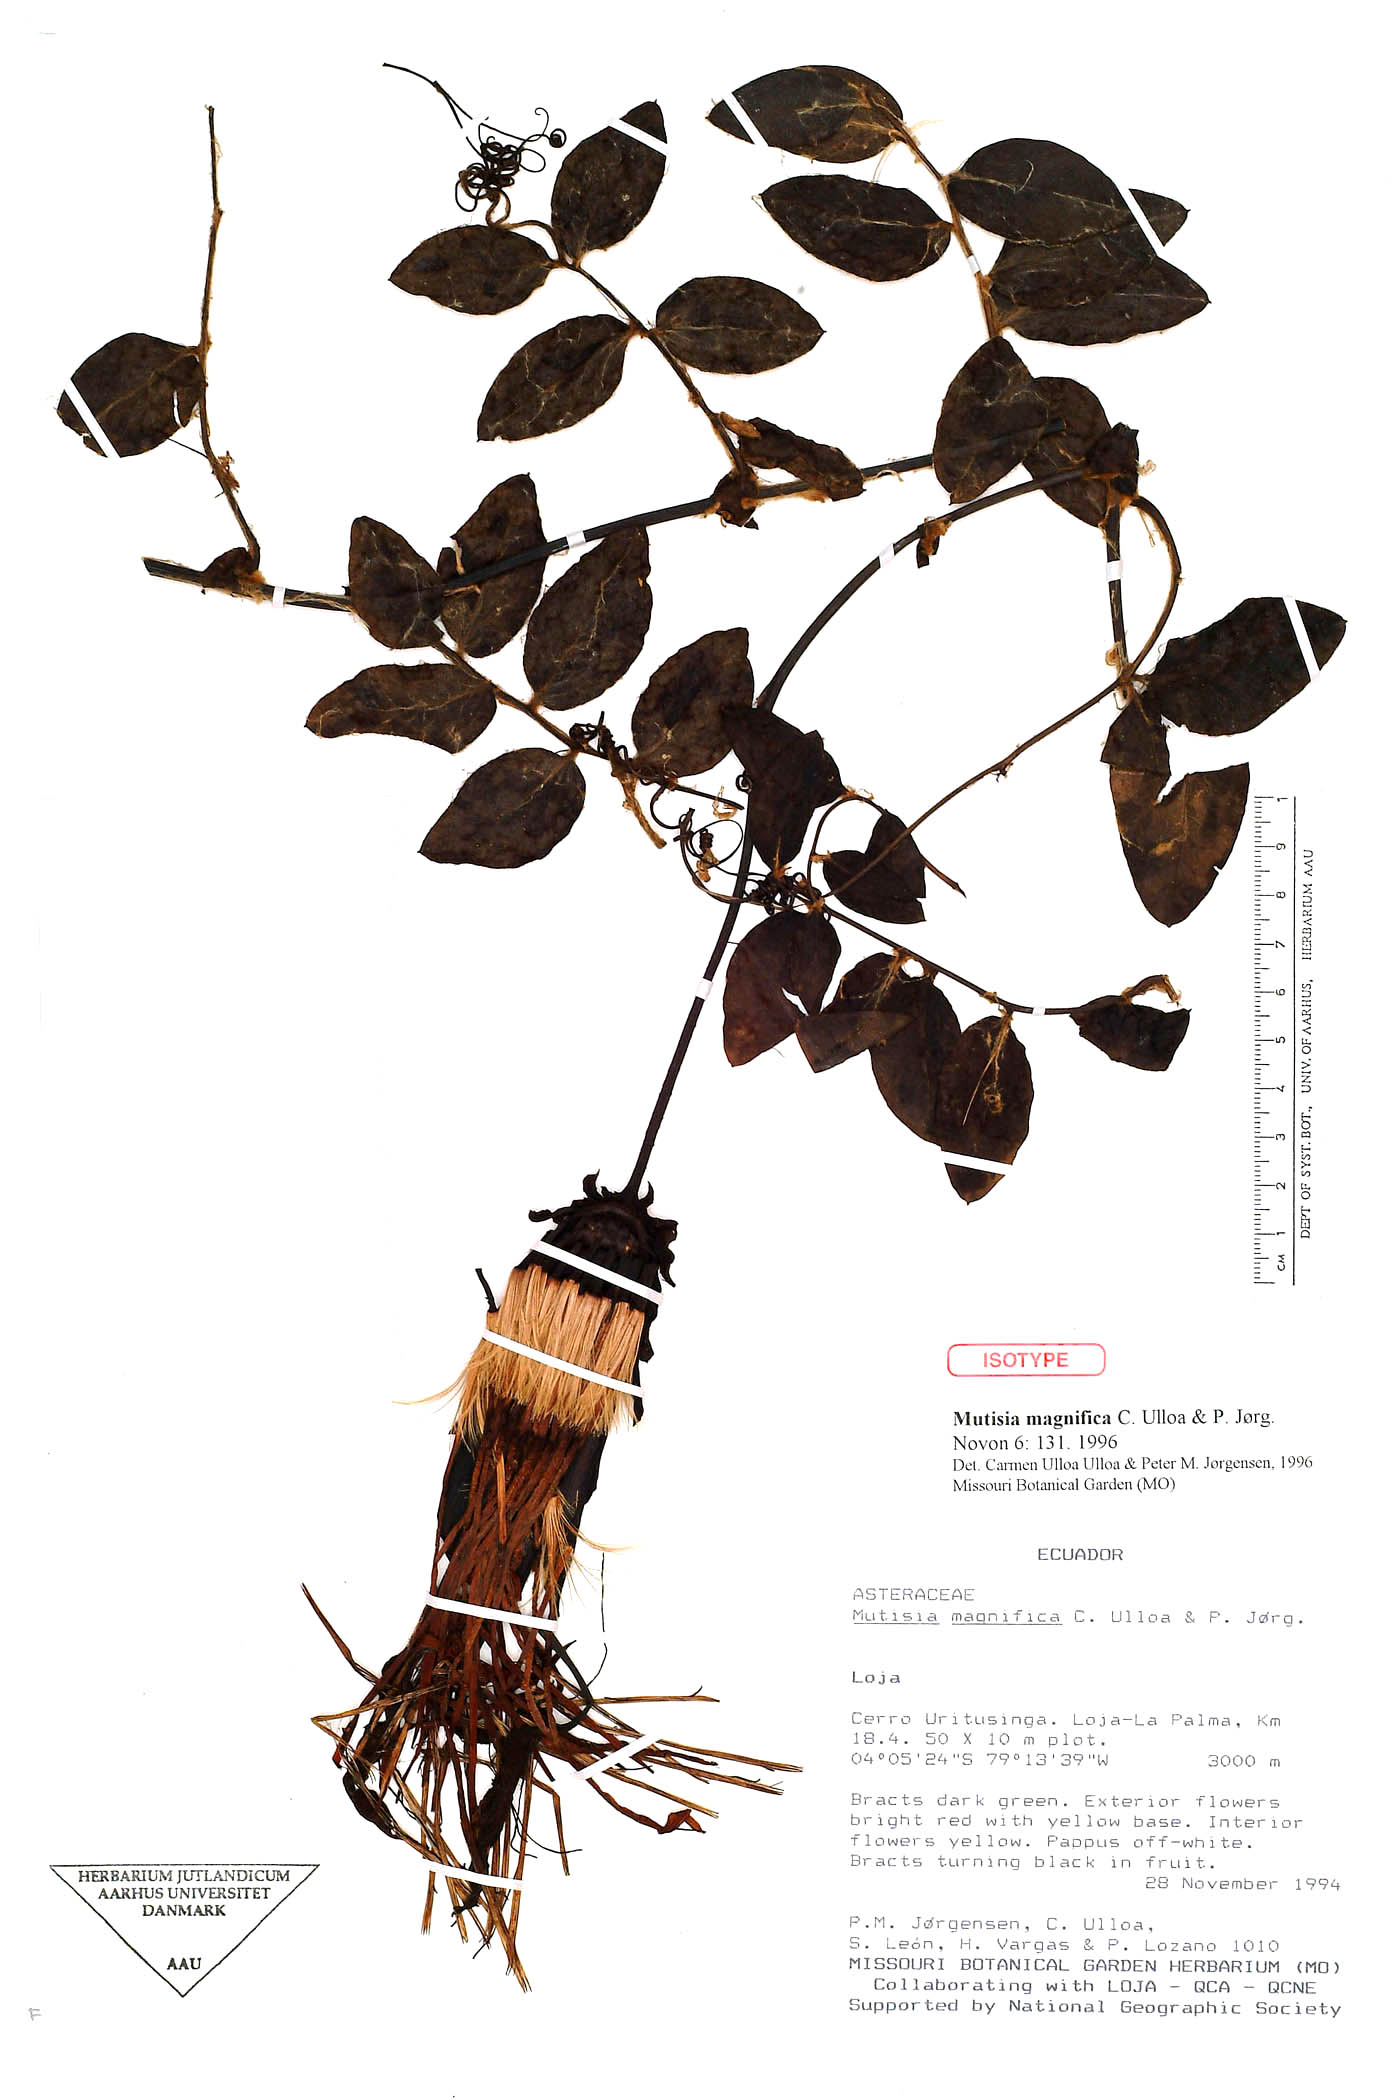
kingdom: Plantae
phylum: Tracheophyta
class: Magnoliopsida
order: Asterales
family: Asteraceae
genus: Mutisia
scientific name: Mutisia magnifica
